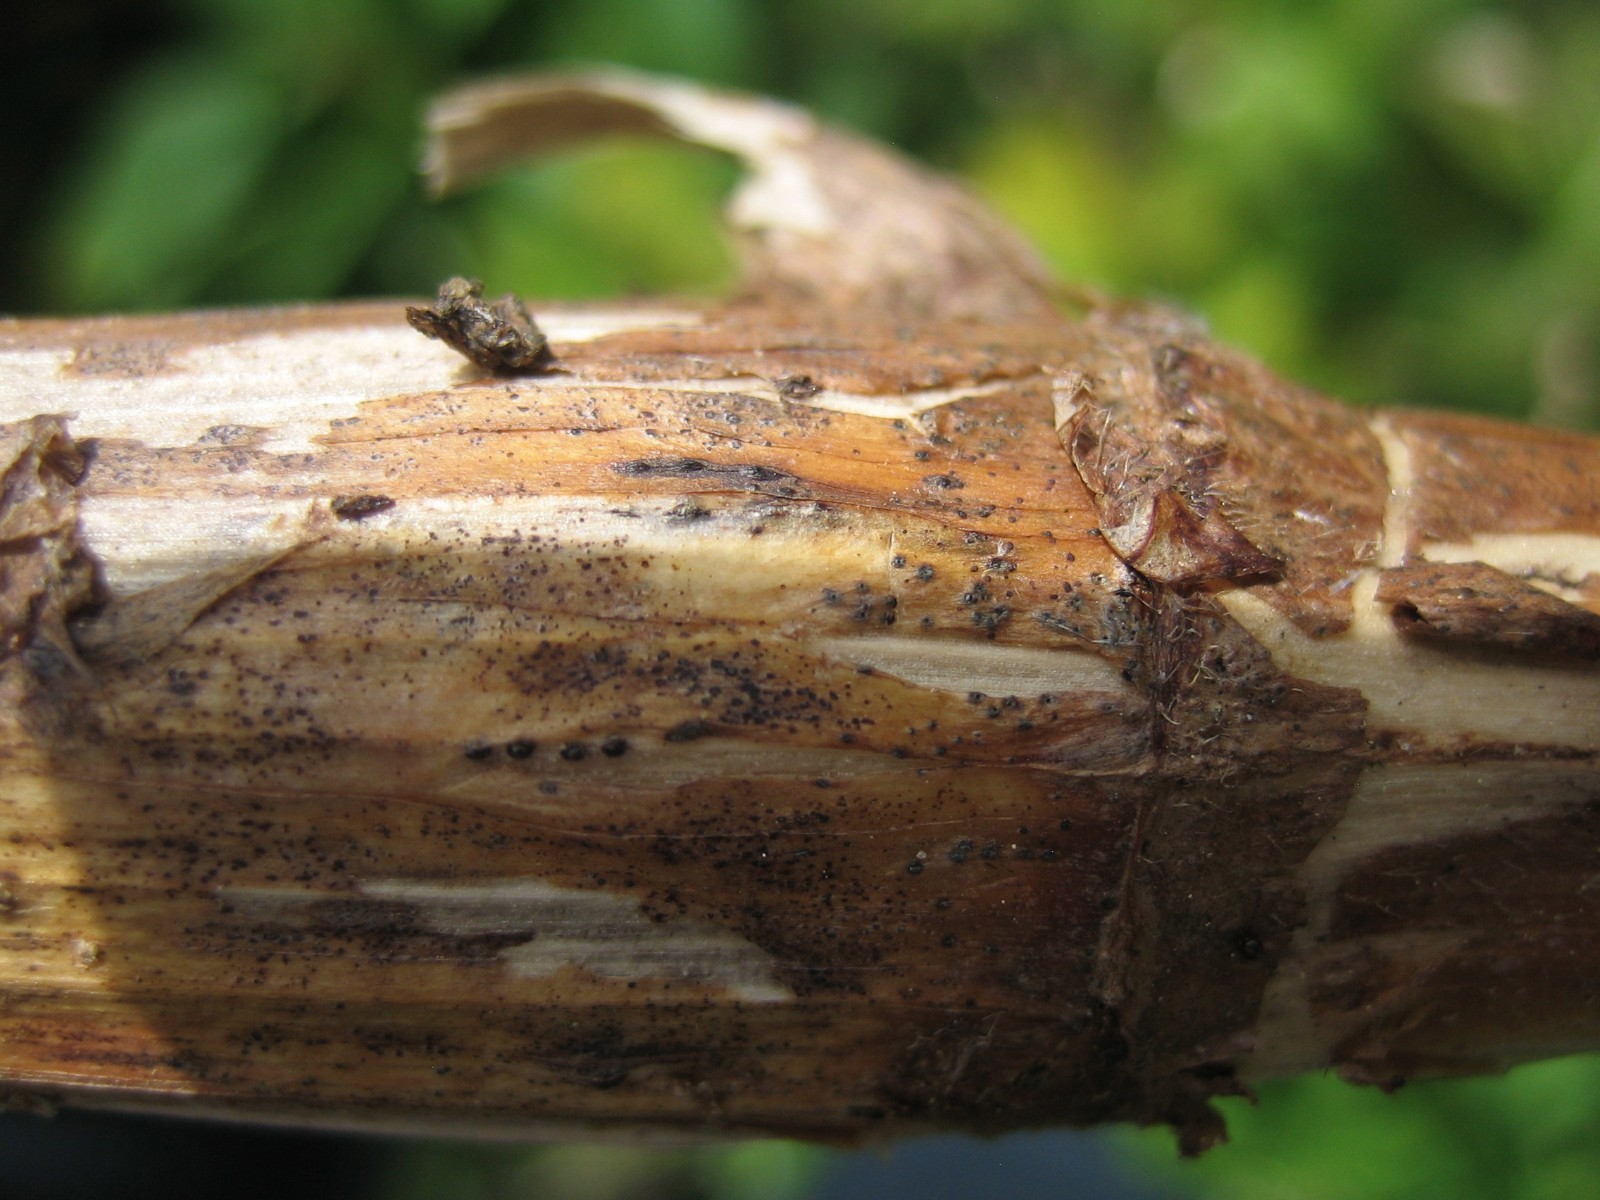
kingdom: Fungi
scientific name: Fungi
